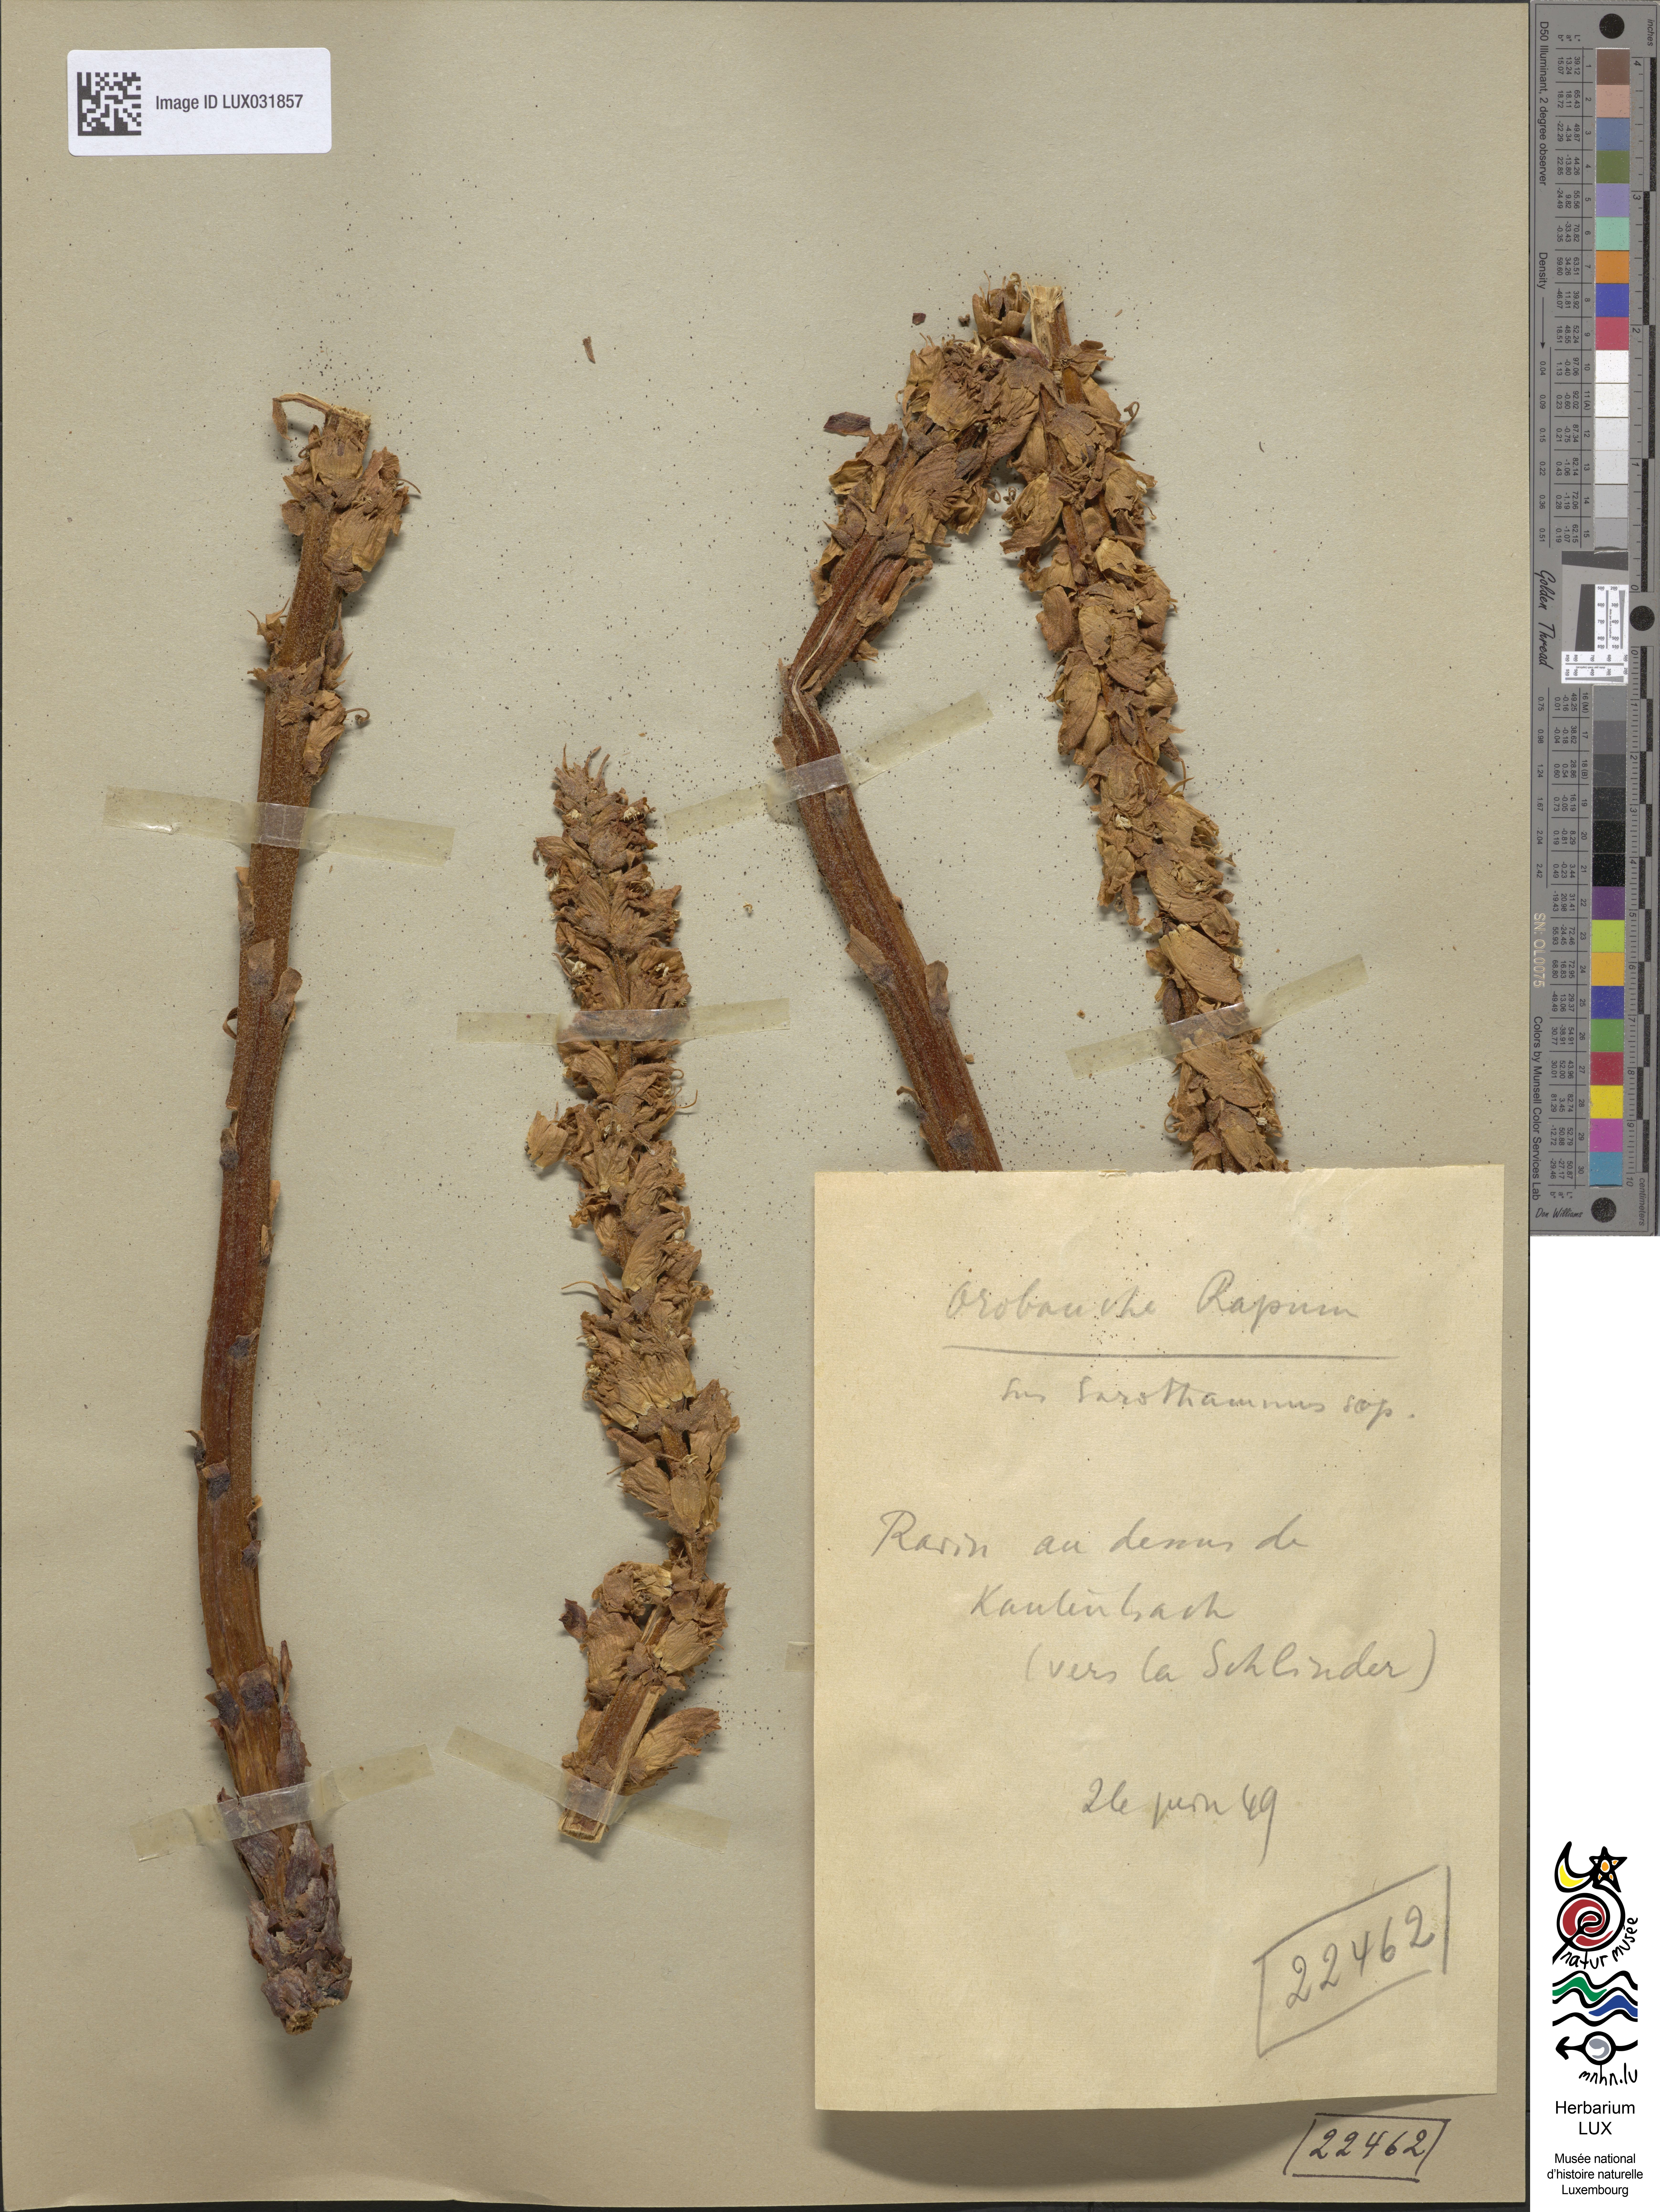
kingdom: Plantae
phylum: Tracheophyta
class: Magnoliopsida
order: Lamiales
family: Orobanchaceae
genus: Orobanche
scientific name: Orobanche rapum-genistae
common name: Greater broomrape
